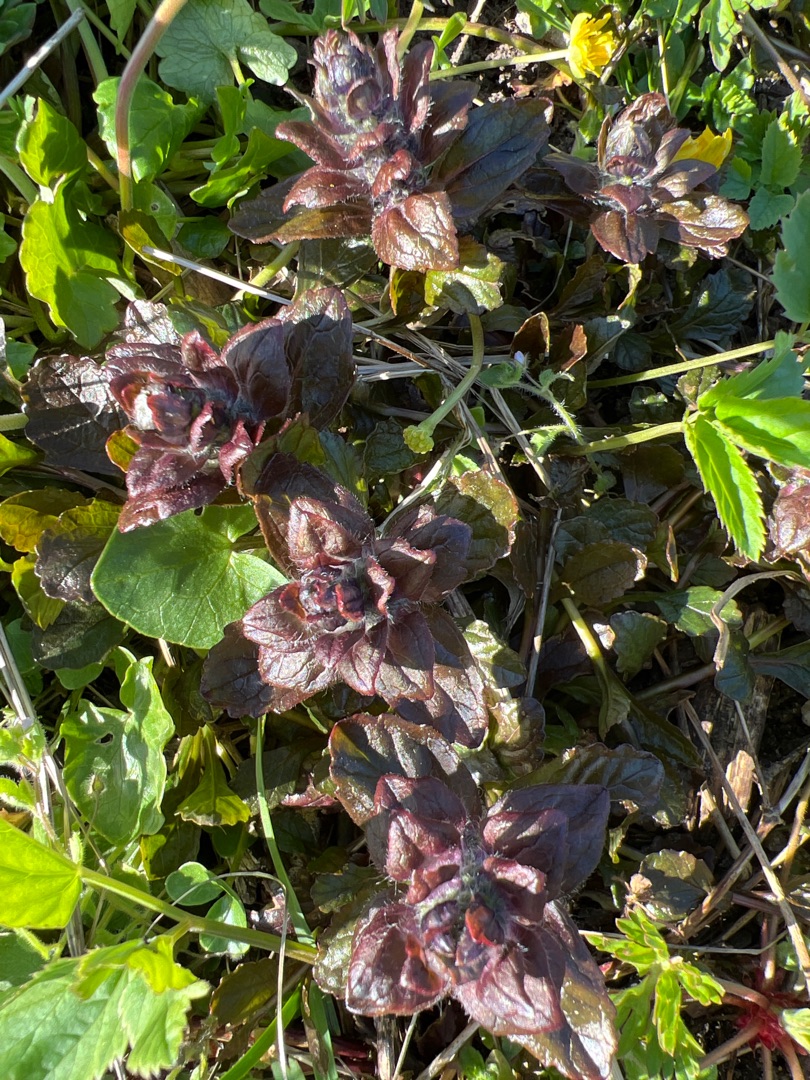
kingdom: Plantae
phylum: Tracheophyta
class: Magnoliopsida
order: Lamiales
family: Lamiaceae
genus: Ajuga
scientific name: Ajuga reptans
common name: Krybende læbeløs
